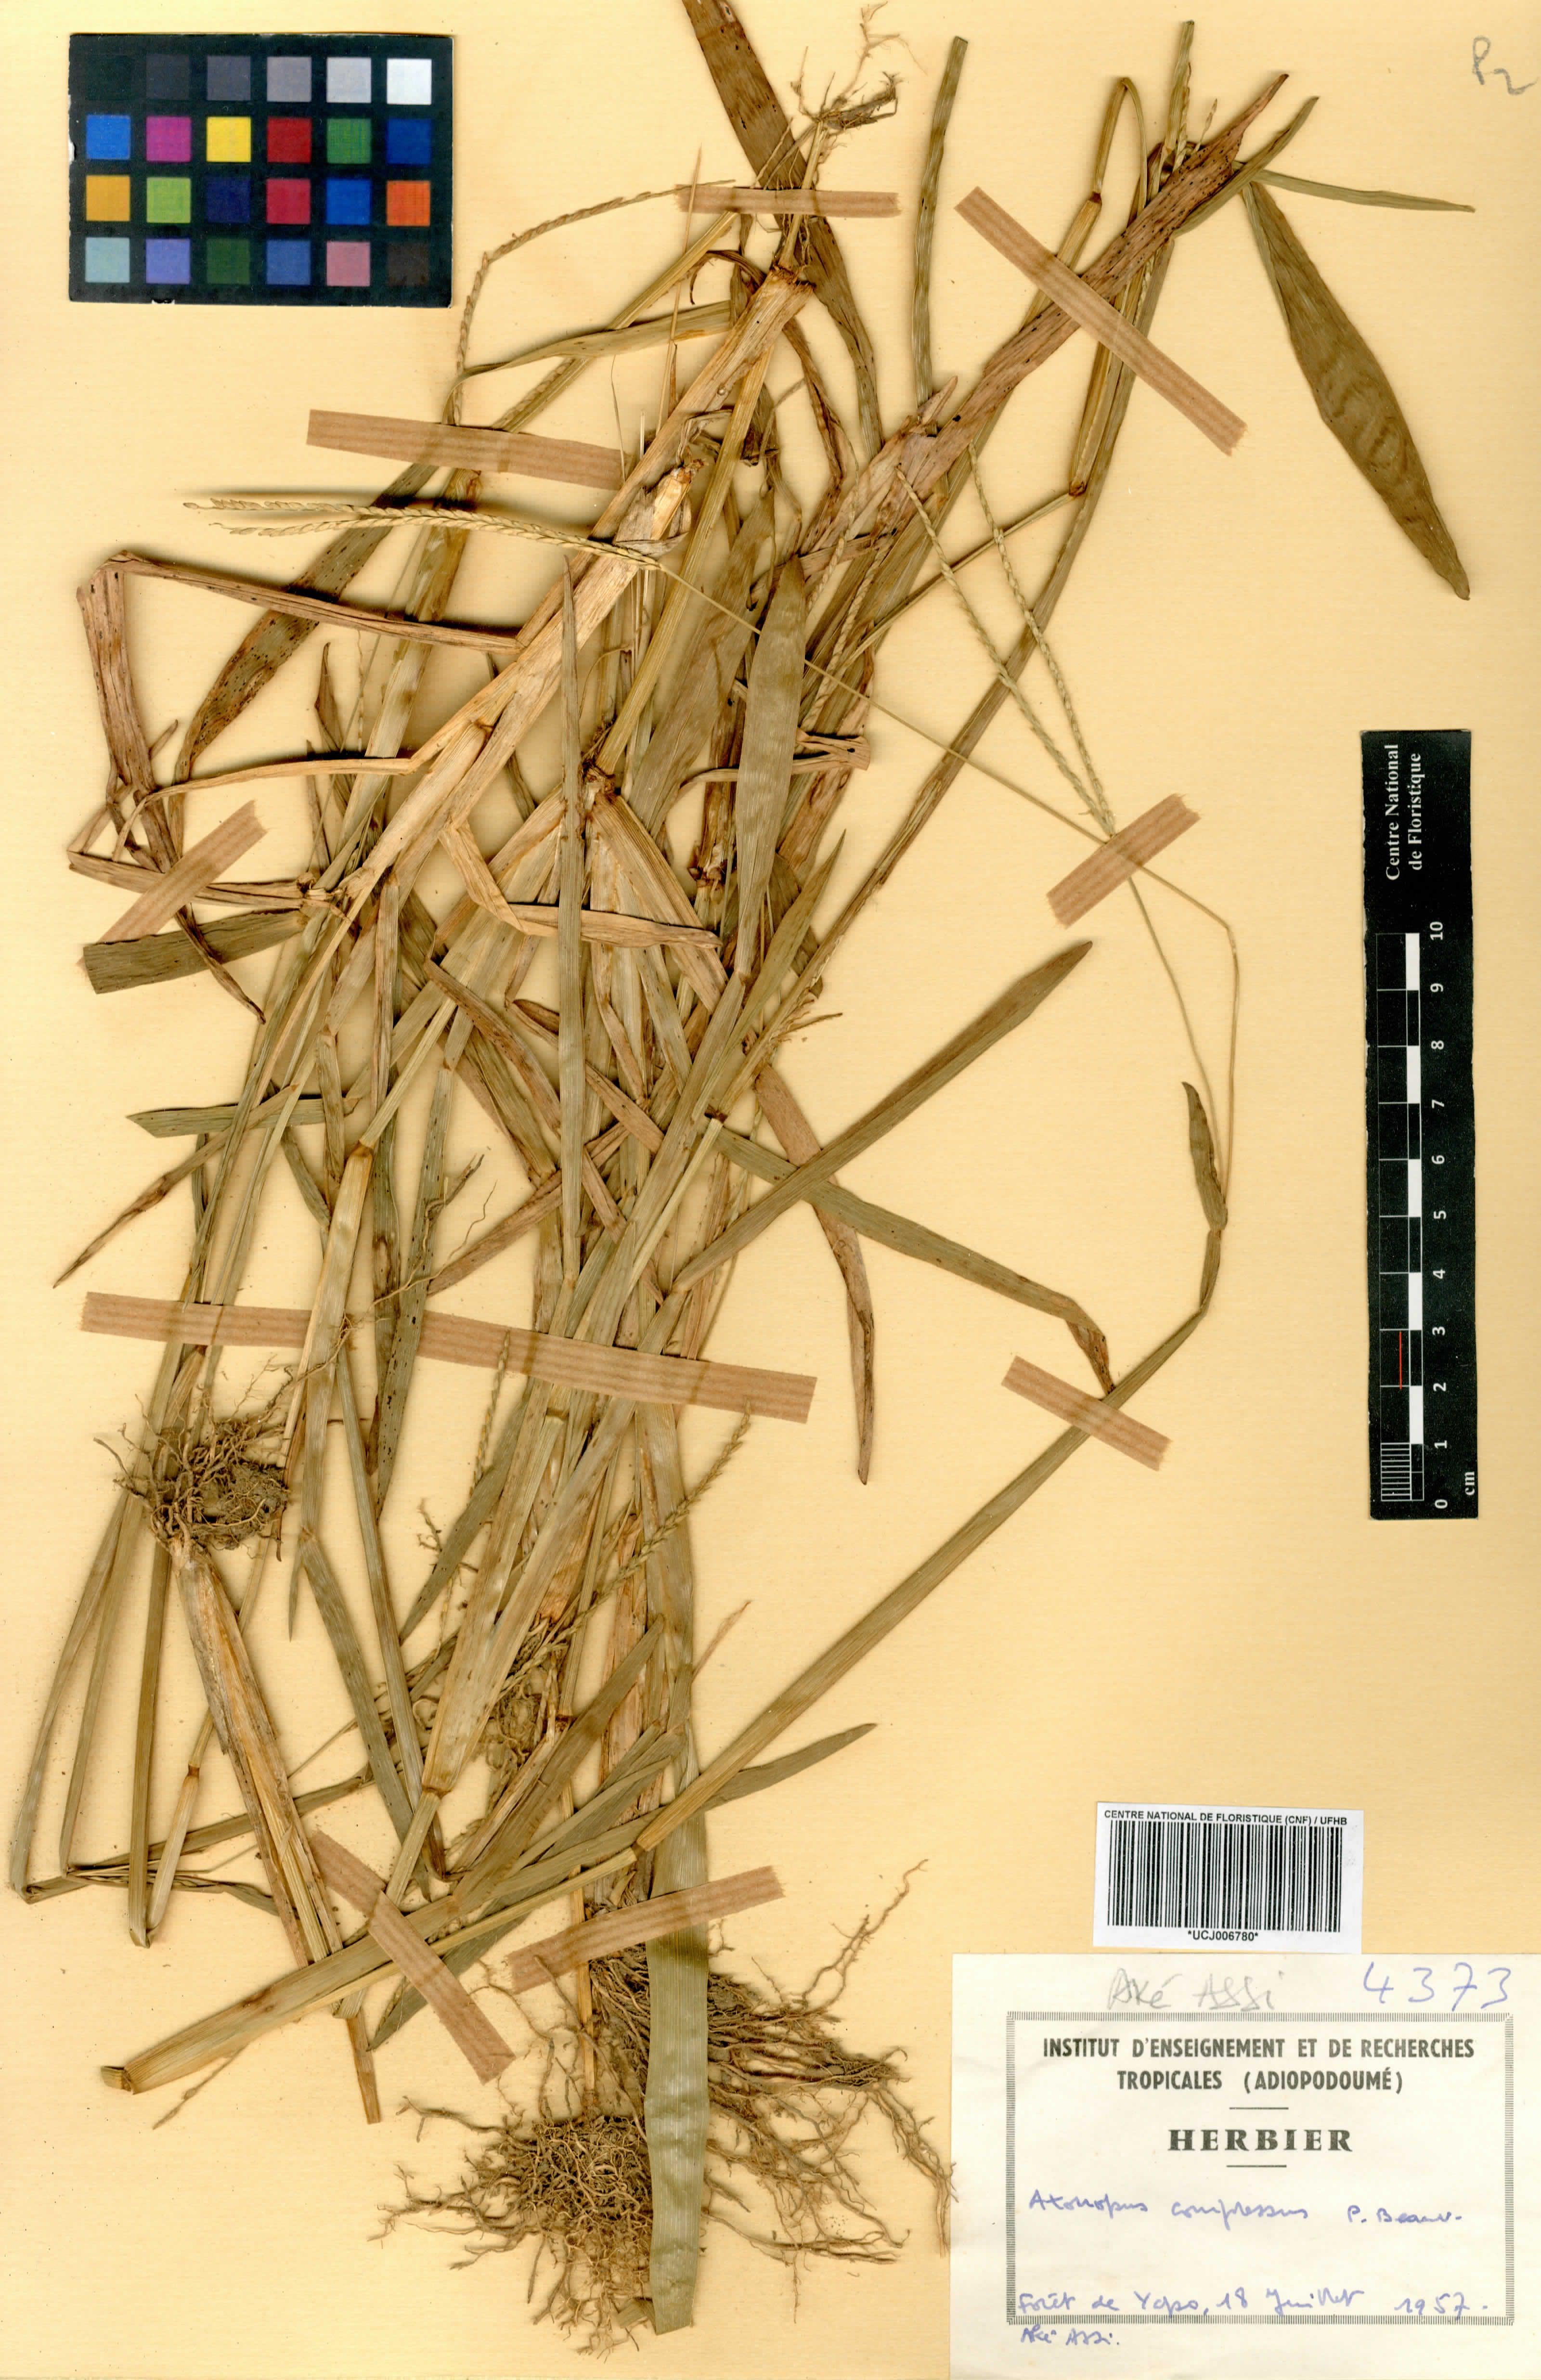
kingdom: Plantae
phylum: Tracheophyta
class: Liliopsida
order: Poales
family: Poaceae
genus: Axonopus
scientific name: Axonopus compressus
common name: American carpet grass
